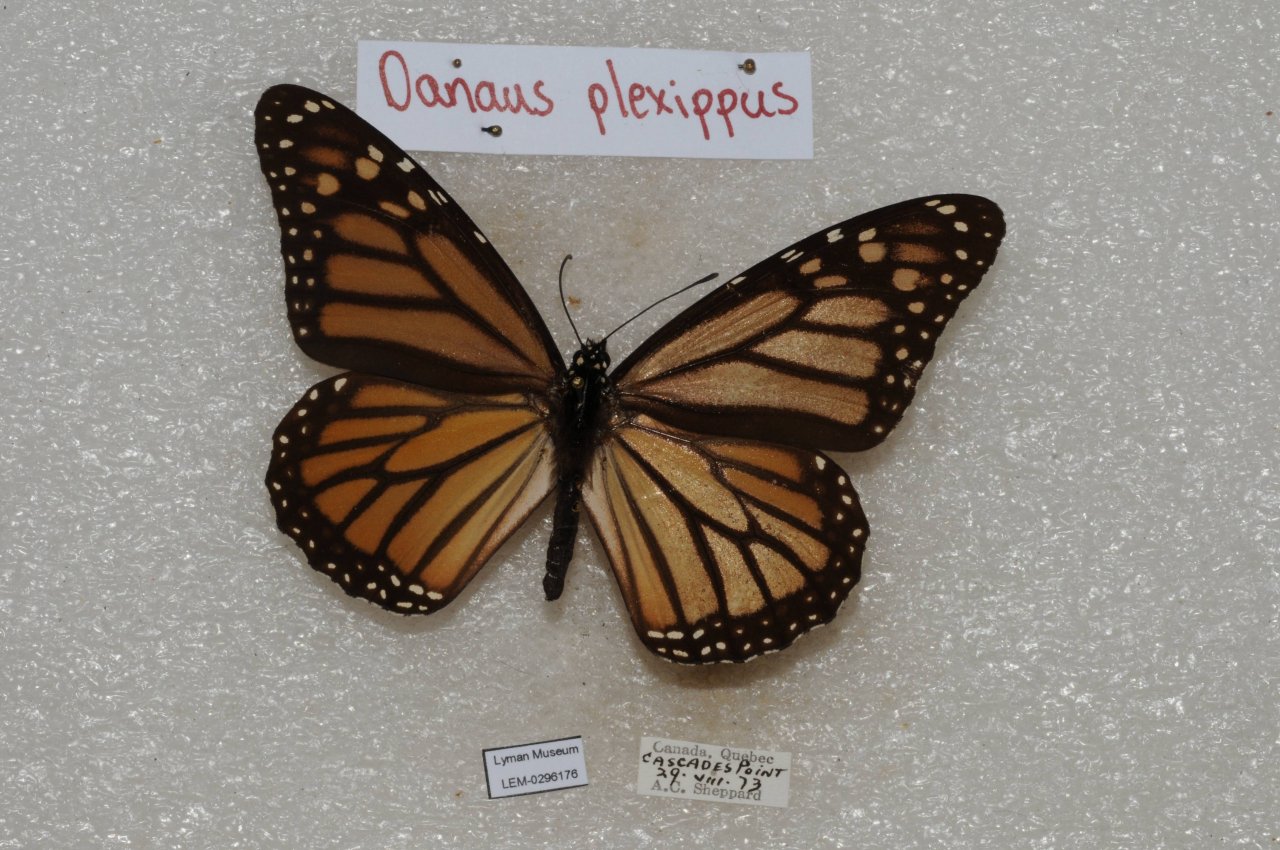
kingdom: Animalia
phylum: Arthropoda
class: Insecta
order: Lepidoptera
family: Nymphalidae
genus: Danaus
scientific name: Danaus plexippus
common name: Monarch
